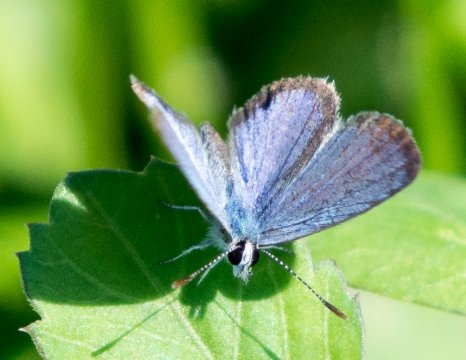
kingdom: Animalia
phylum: Arthropoda
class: Insecta
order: Lepidoptera
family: Lycaenidae
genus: Hemiargus
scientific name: Hemiargus ceraunus
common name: Ceraunus Blue
